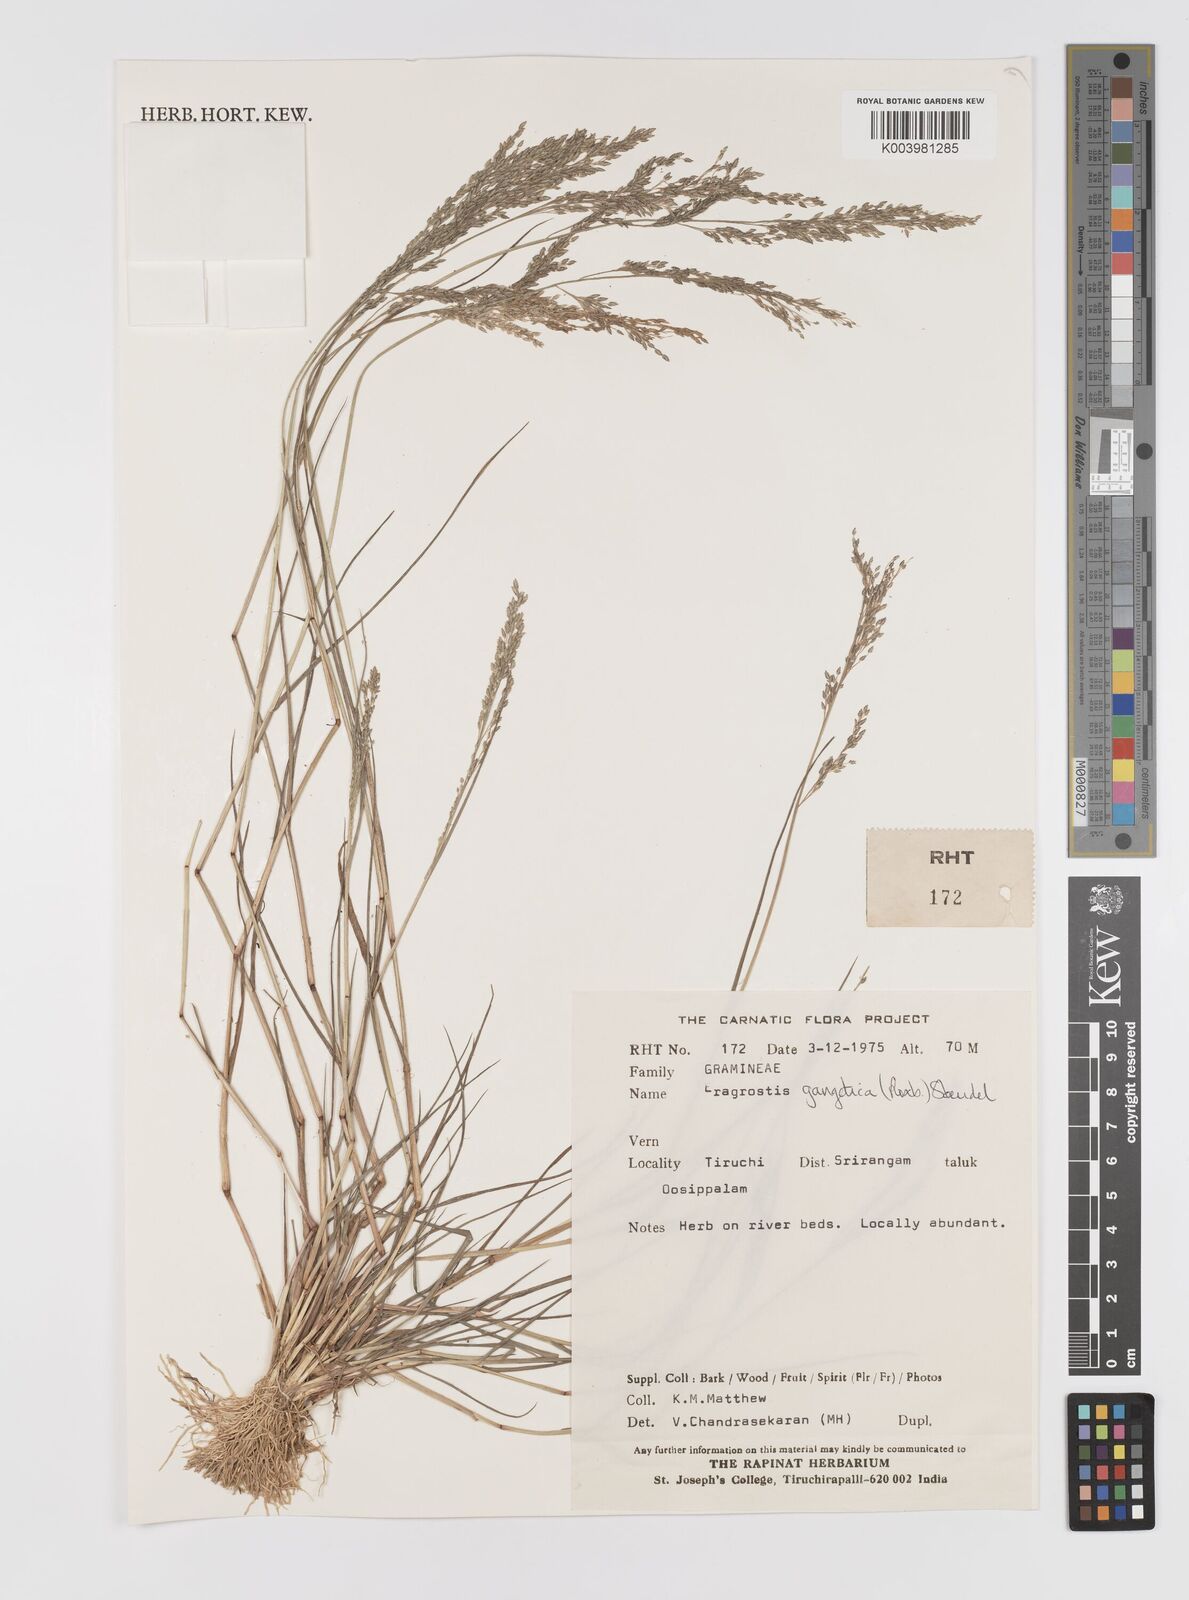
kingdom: Plantae
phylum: Tracheophyta
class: Liliopsida
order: Poales
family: Poaceae
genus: Eragrostis
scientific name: Eragrostis gangetica
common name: Slimflower lovegrass
